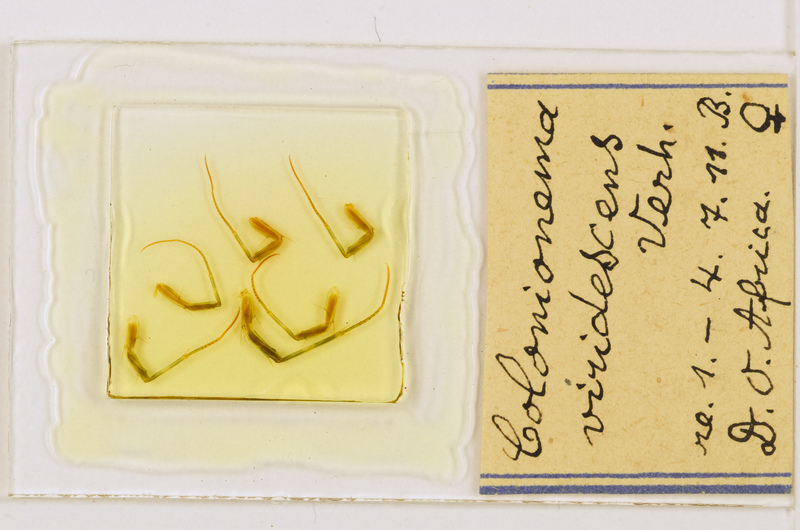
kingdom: Animalia
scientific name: Animalia
